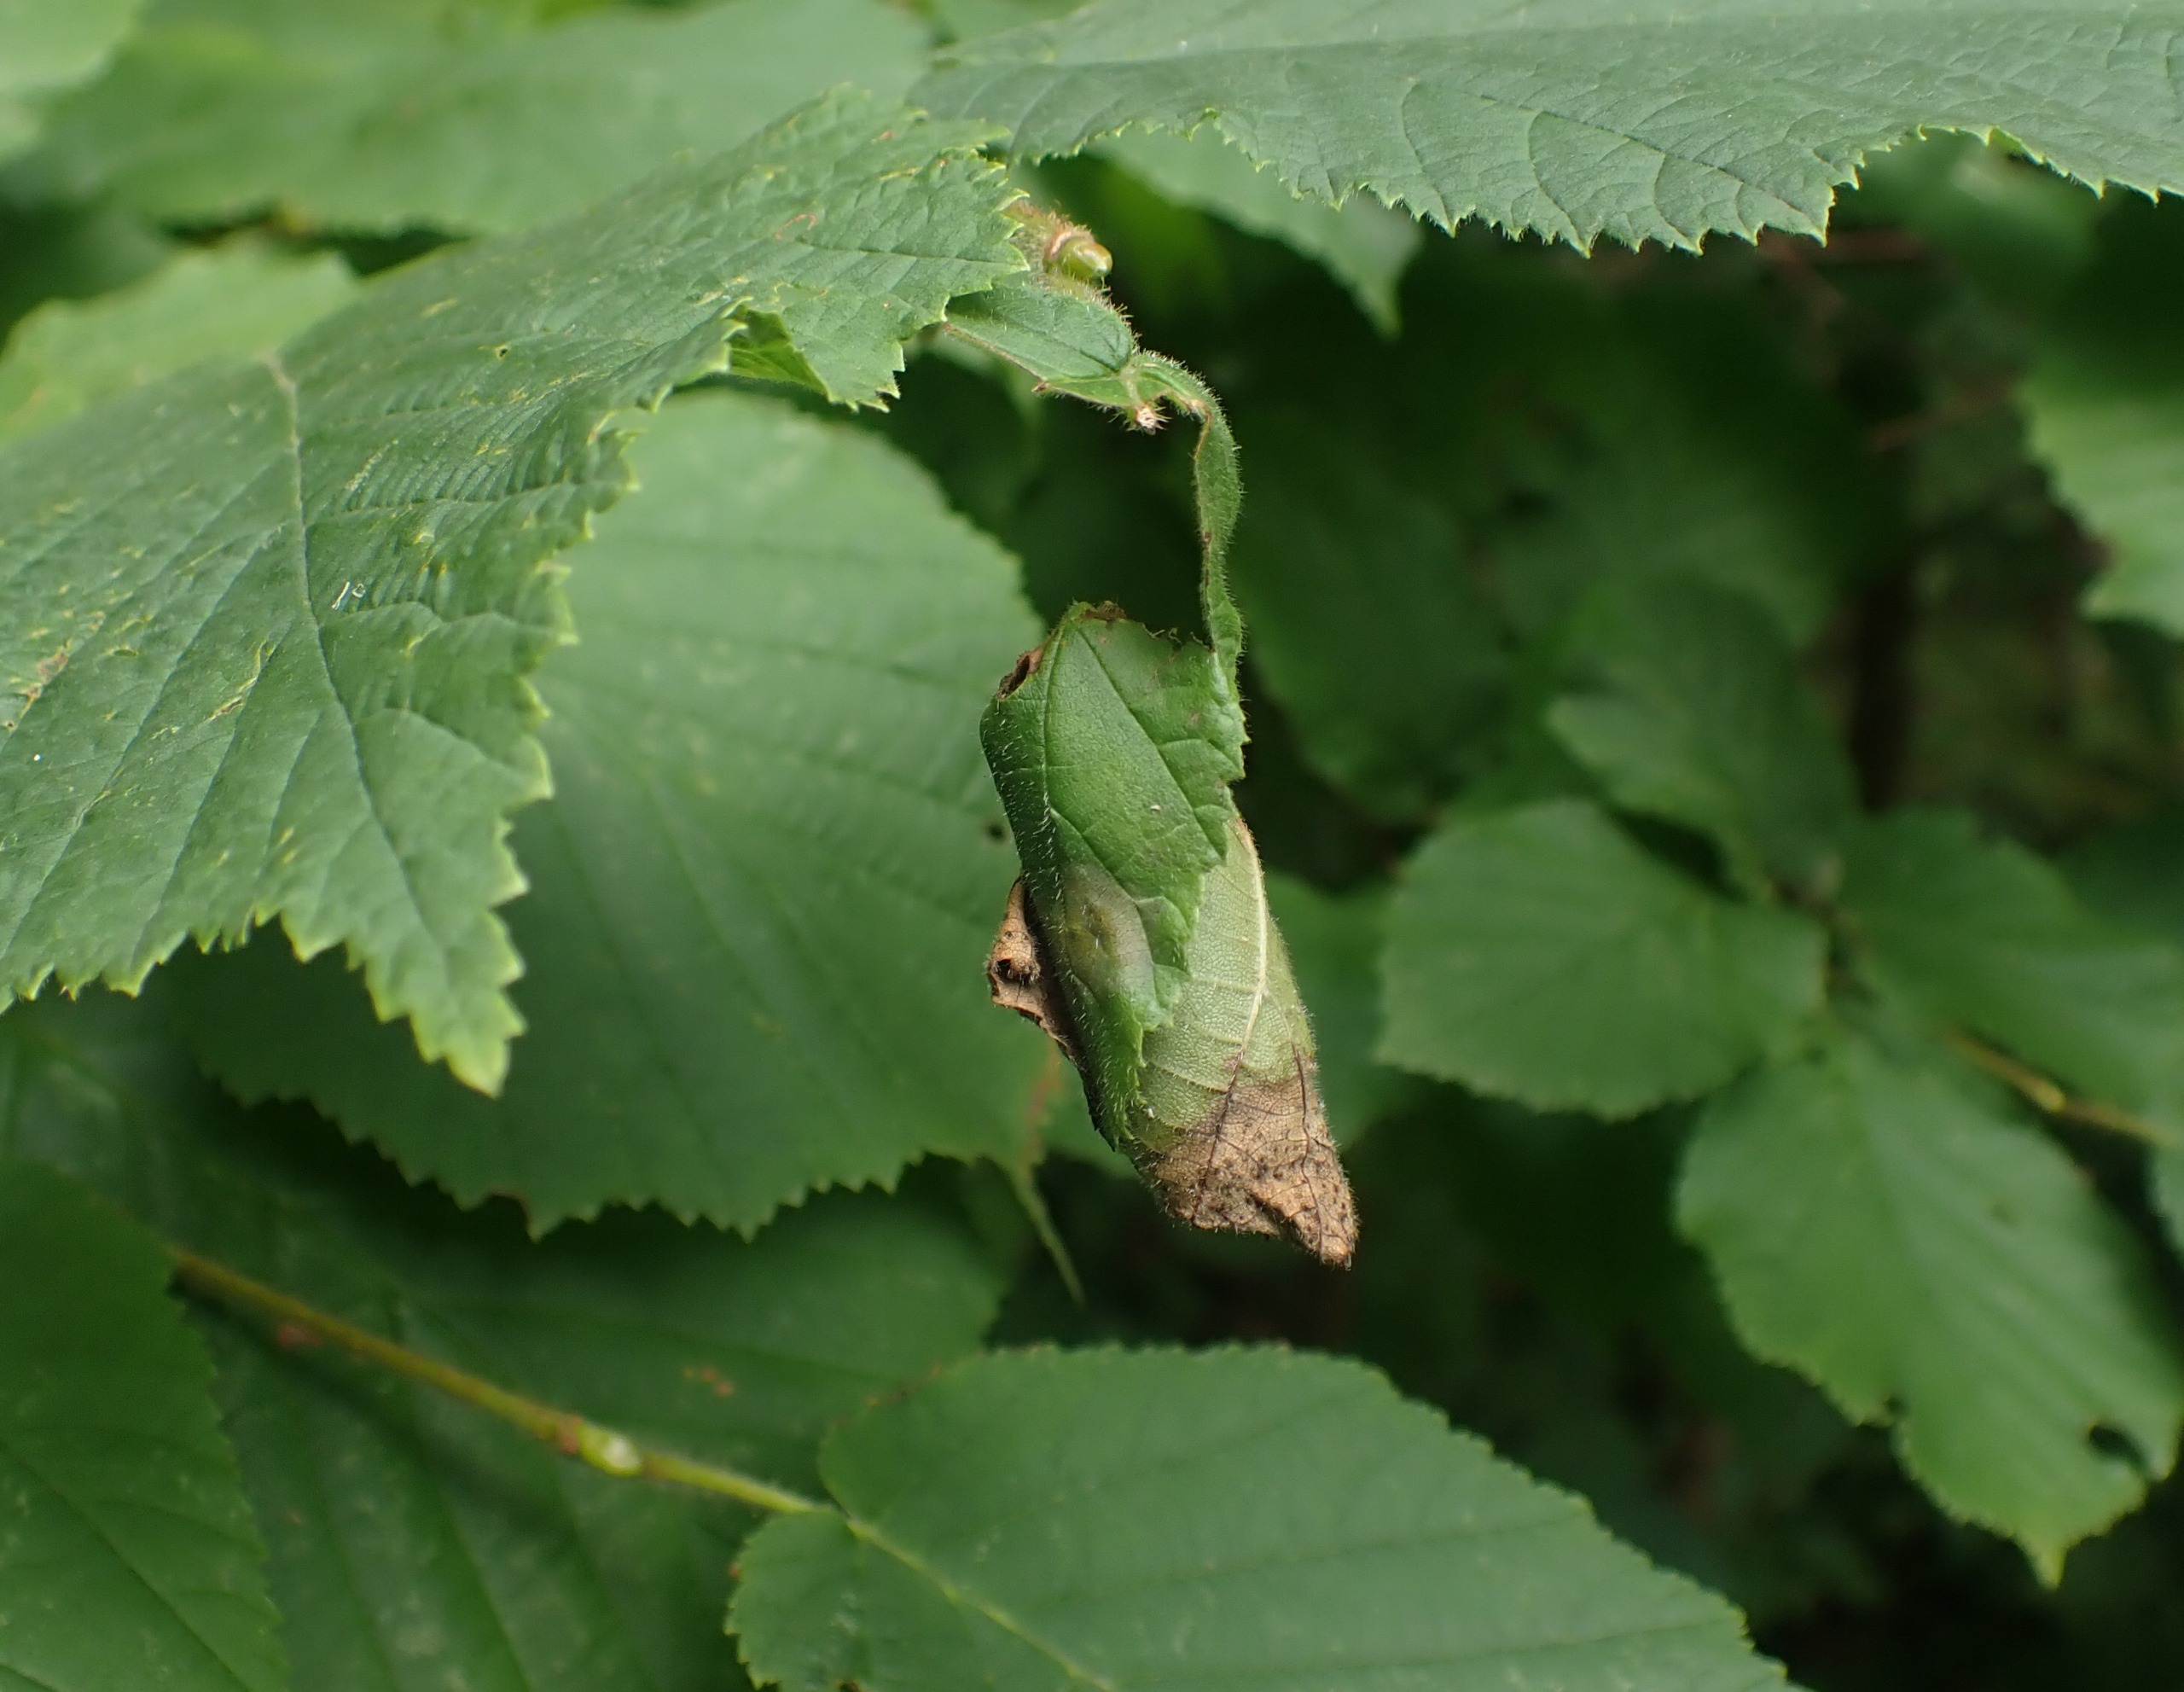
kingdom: Animalia
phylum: Arthropoda
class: Insecta
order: Coleoptera
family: Attelabidae
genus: Apoderus
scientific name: Apoderus coryli
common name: Hasselbladruller
